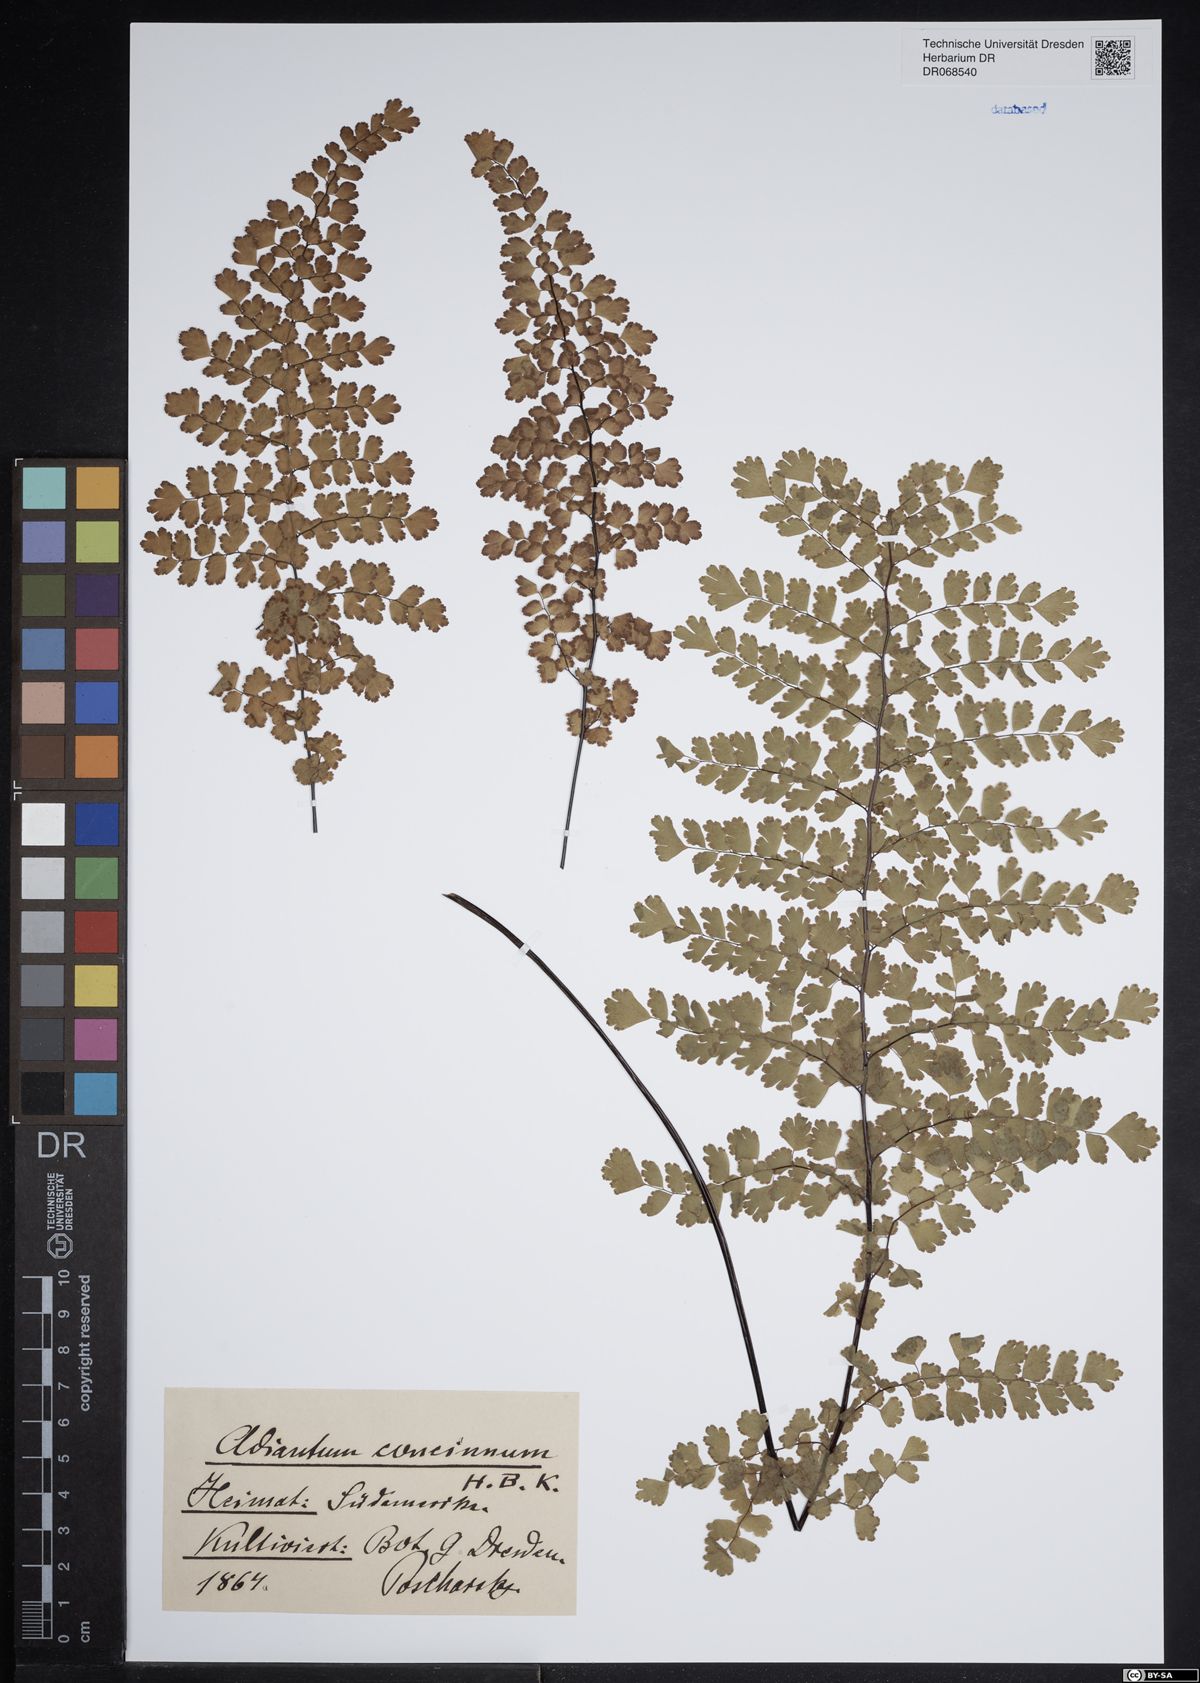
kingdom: Plantae
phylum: Tracheophyta
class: Polypodiopsida
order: Polypodiales
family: Pteridaceae
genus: Adiantum
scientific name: Adiantum concinnum
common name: Brittle maidenhair fern
